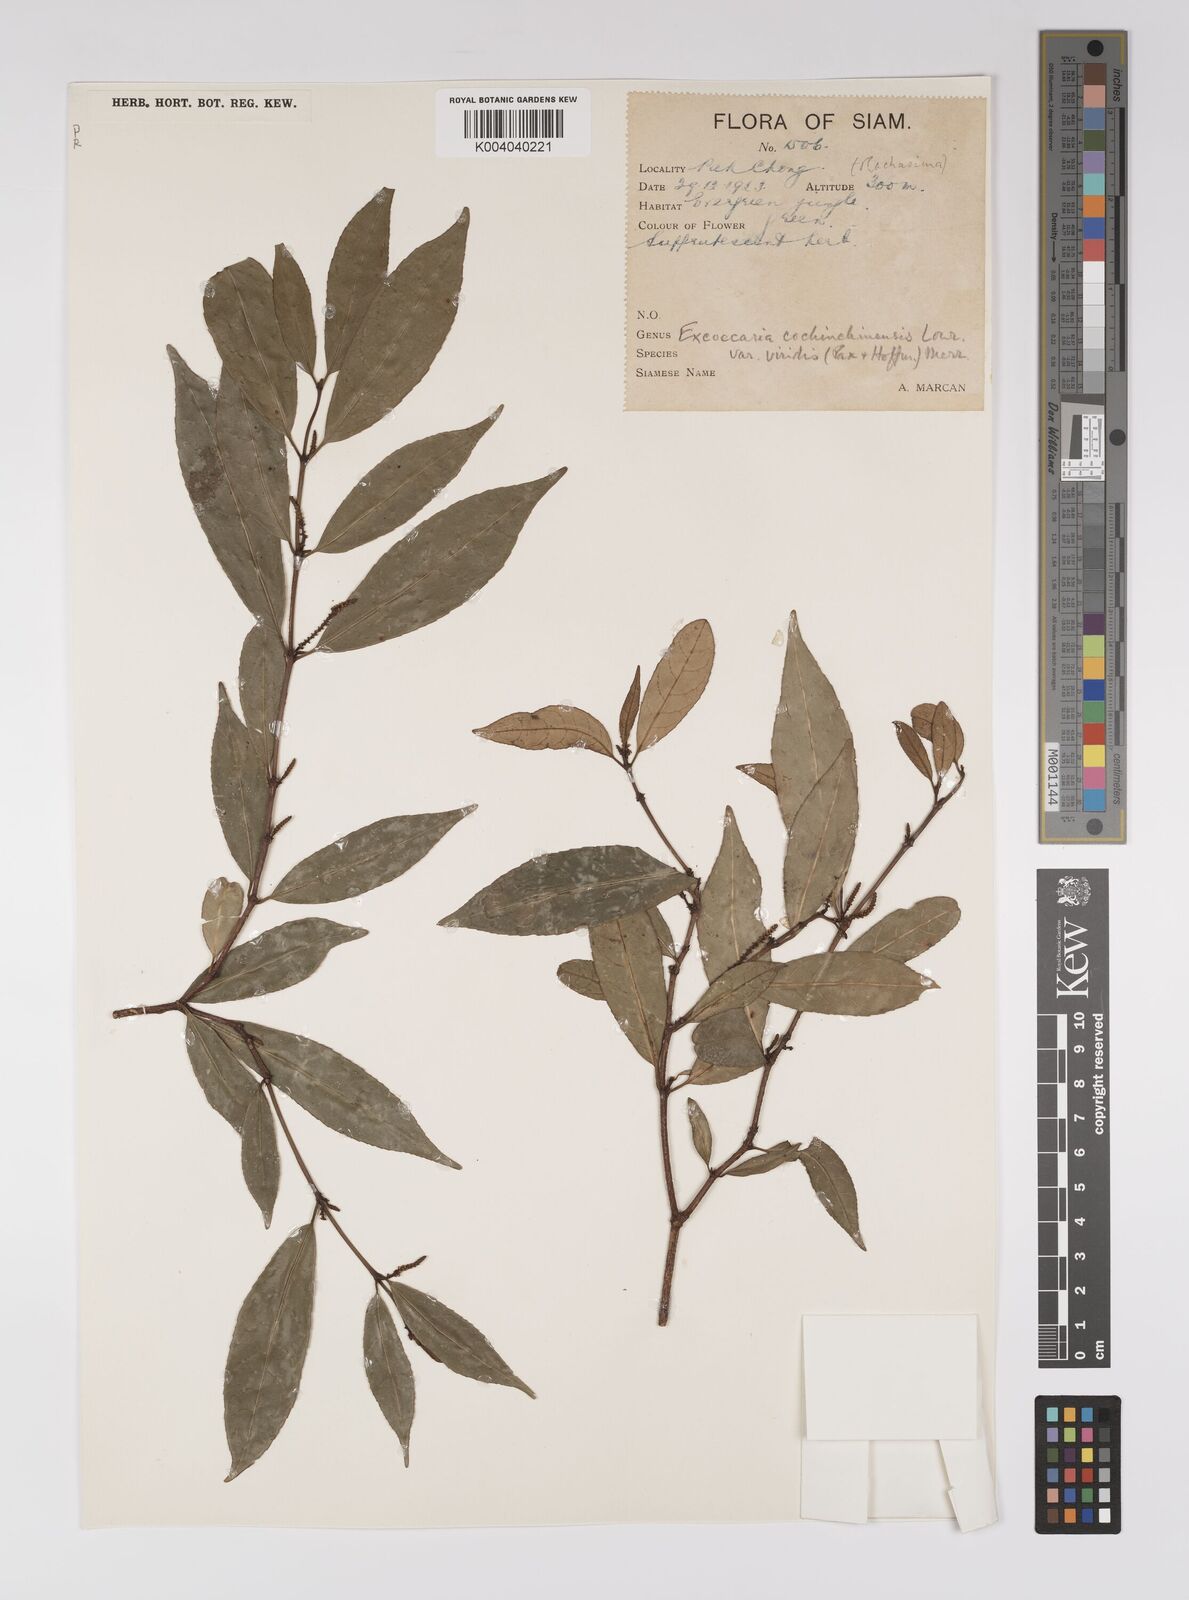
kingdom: Plantae
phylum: Tracheophyta
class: Magnoliopsida
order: Malpighiales
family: Euphorbiaceae
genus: Excoecaria
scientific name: Excoecaria cochinchinensis
